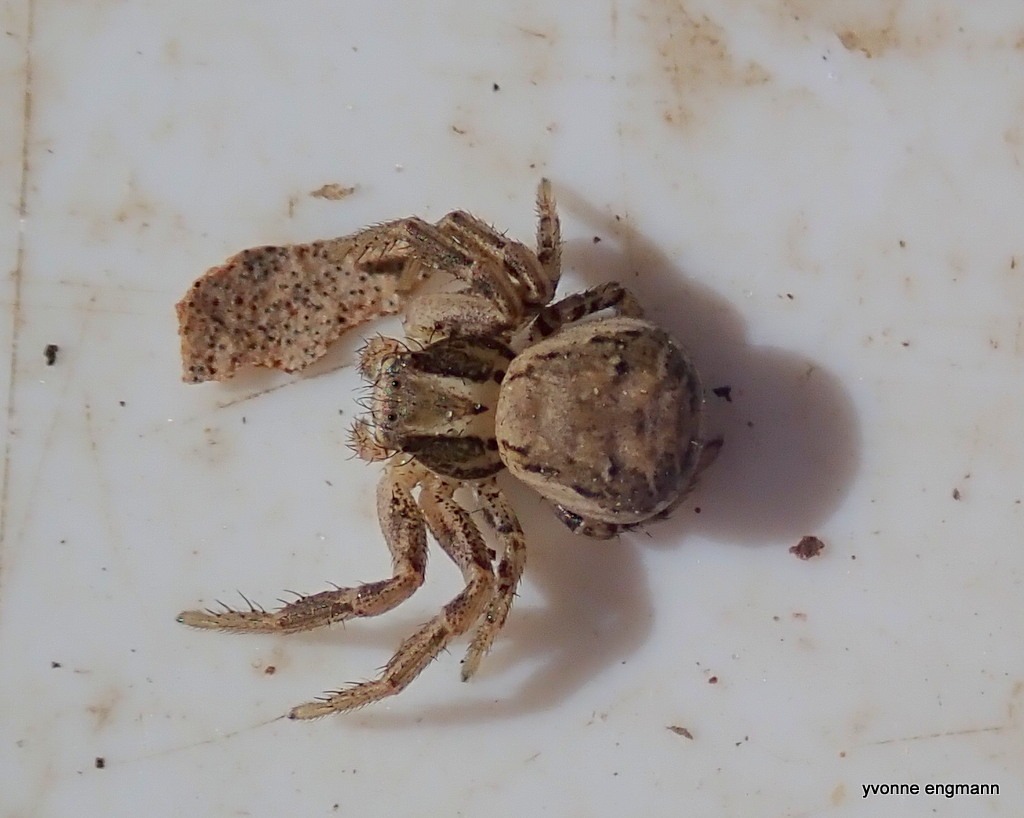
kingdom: Animalia
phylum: Arthropoda
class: Arachnida
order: Araneae
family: Thomisidae
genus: Xysticus
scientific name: Xysticus
